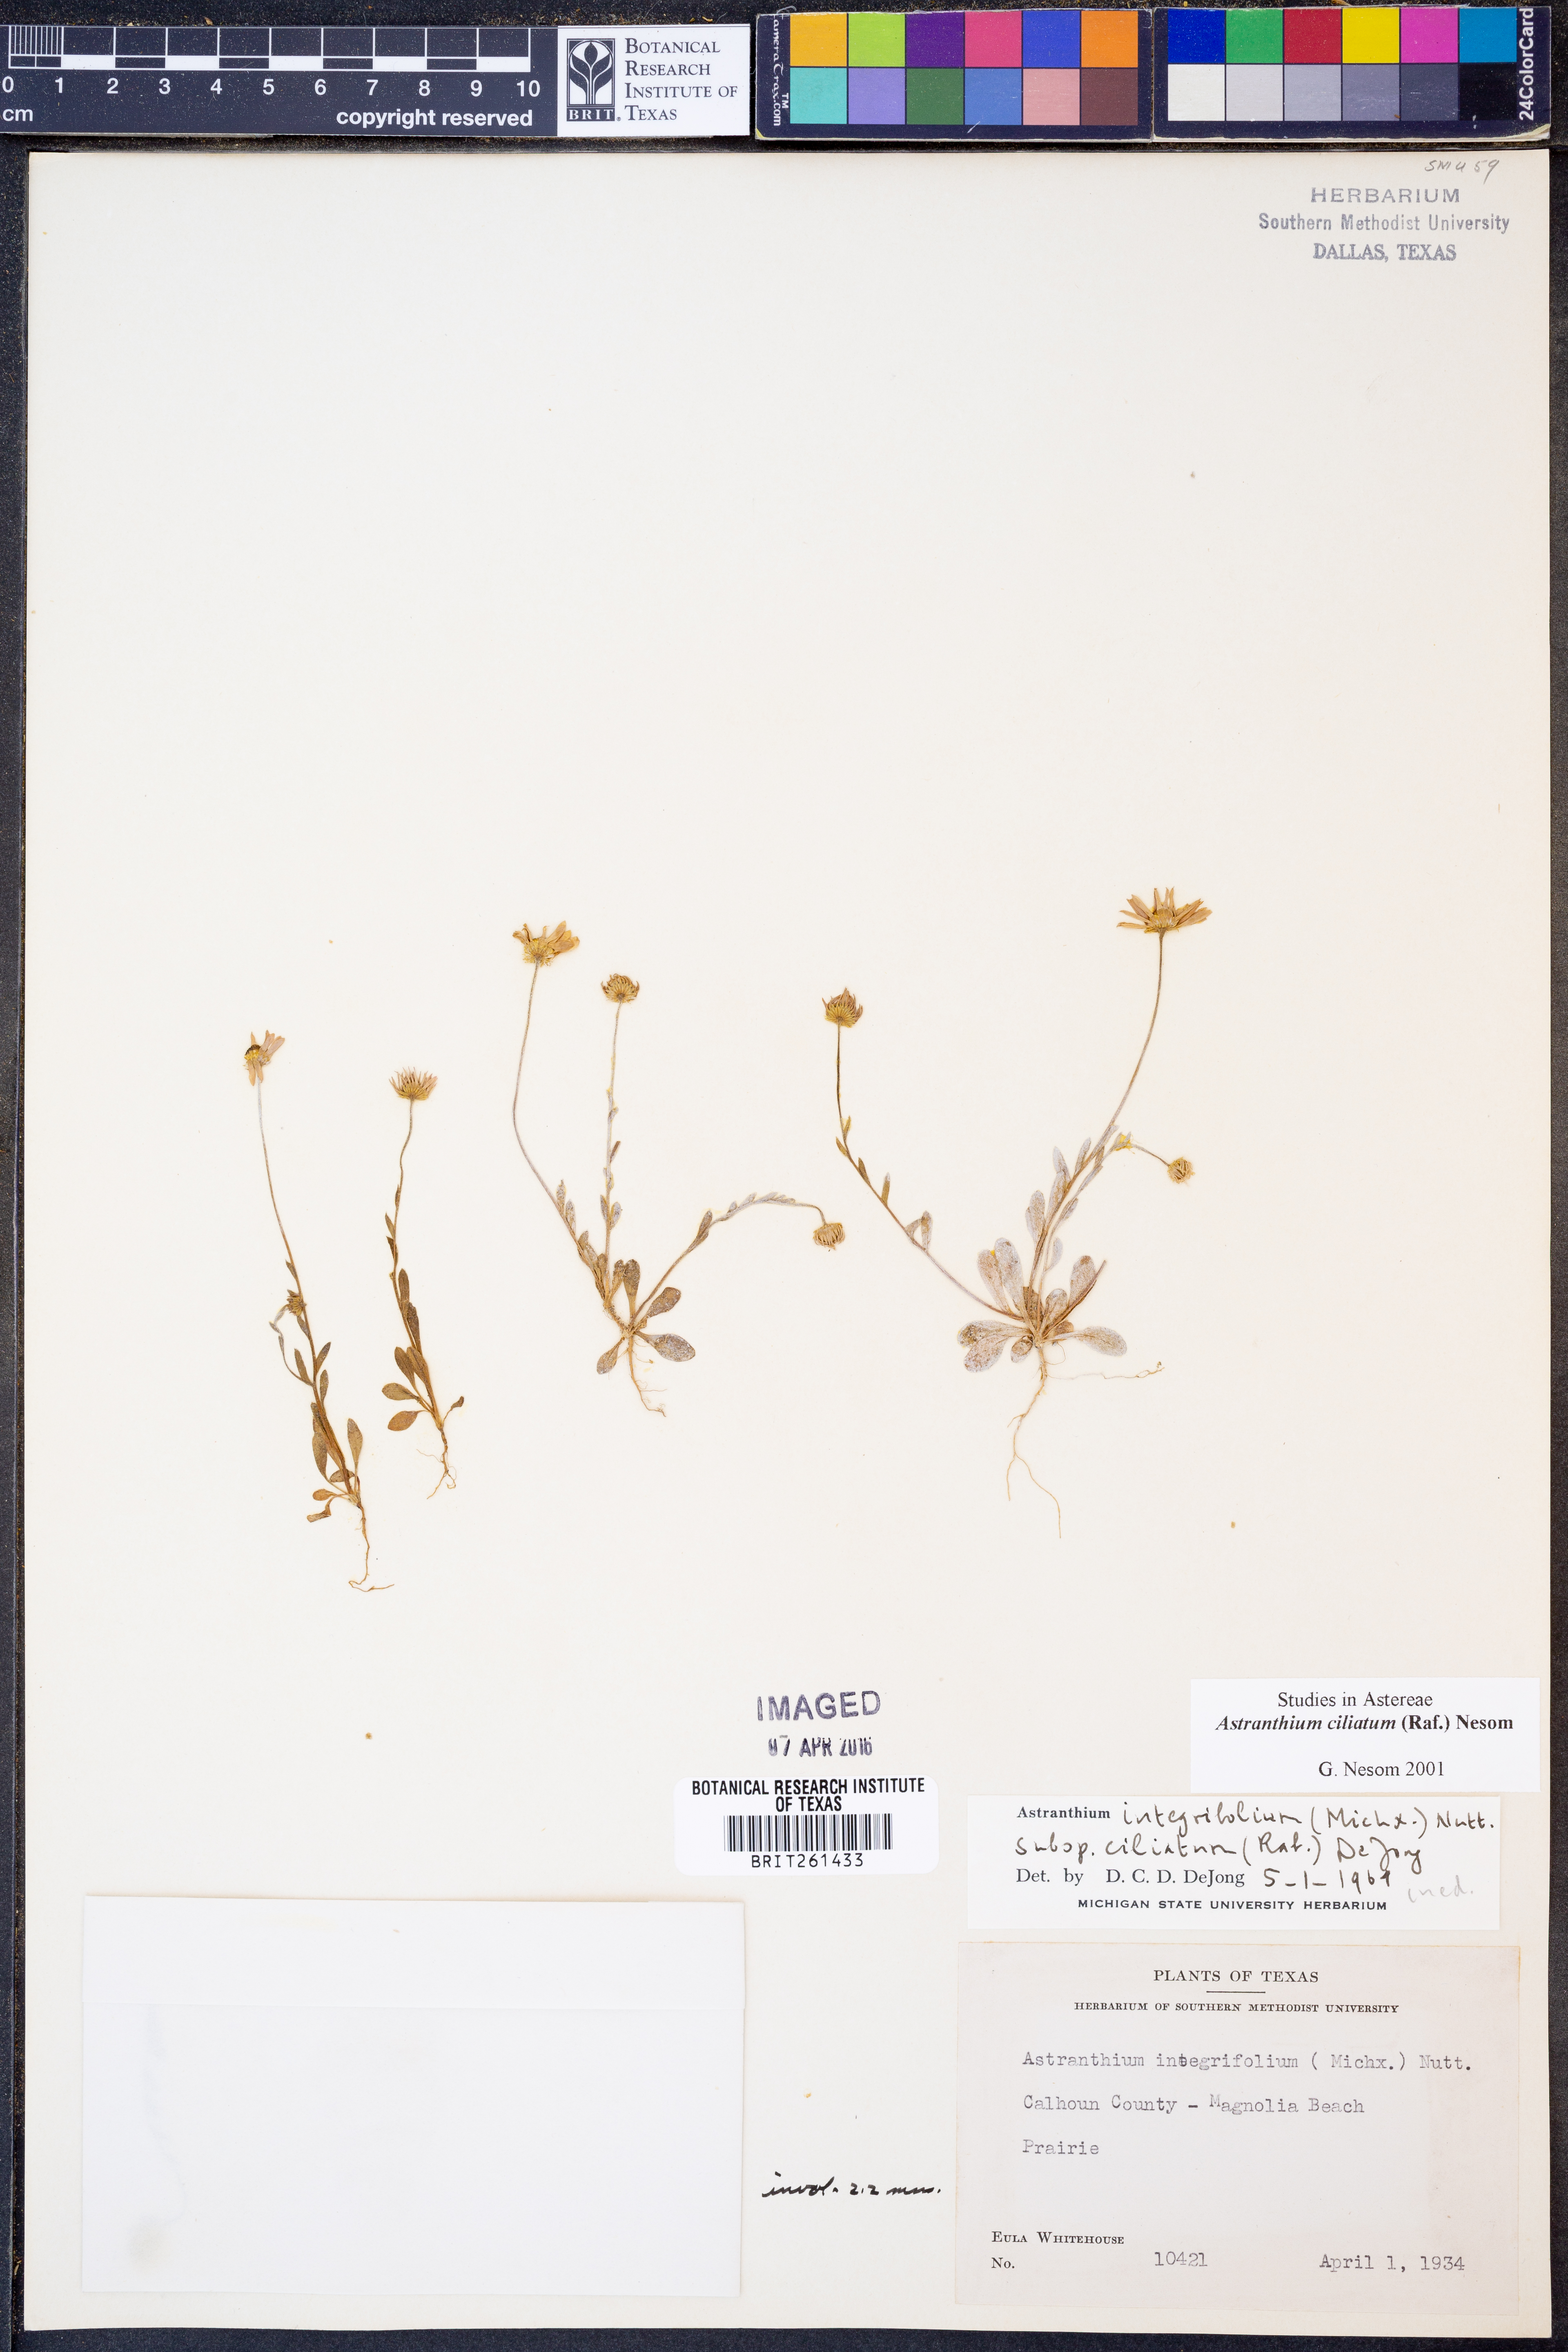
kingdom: Plantae
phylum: Tracheophyta
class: Magnoliopsida
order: Asterales
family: Asteraceae
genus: Astranthium
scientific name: Astranthium ciliatum
